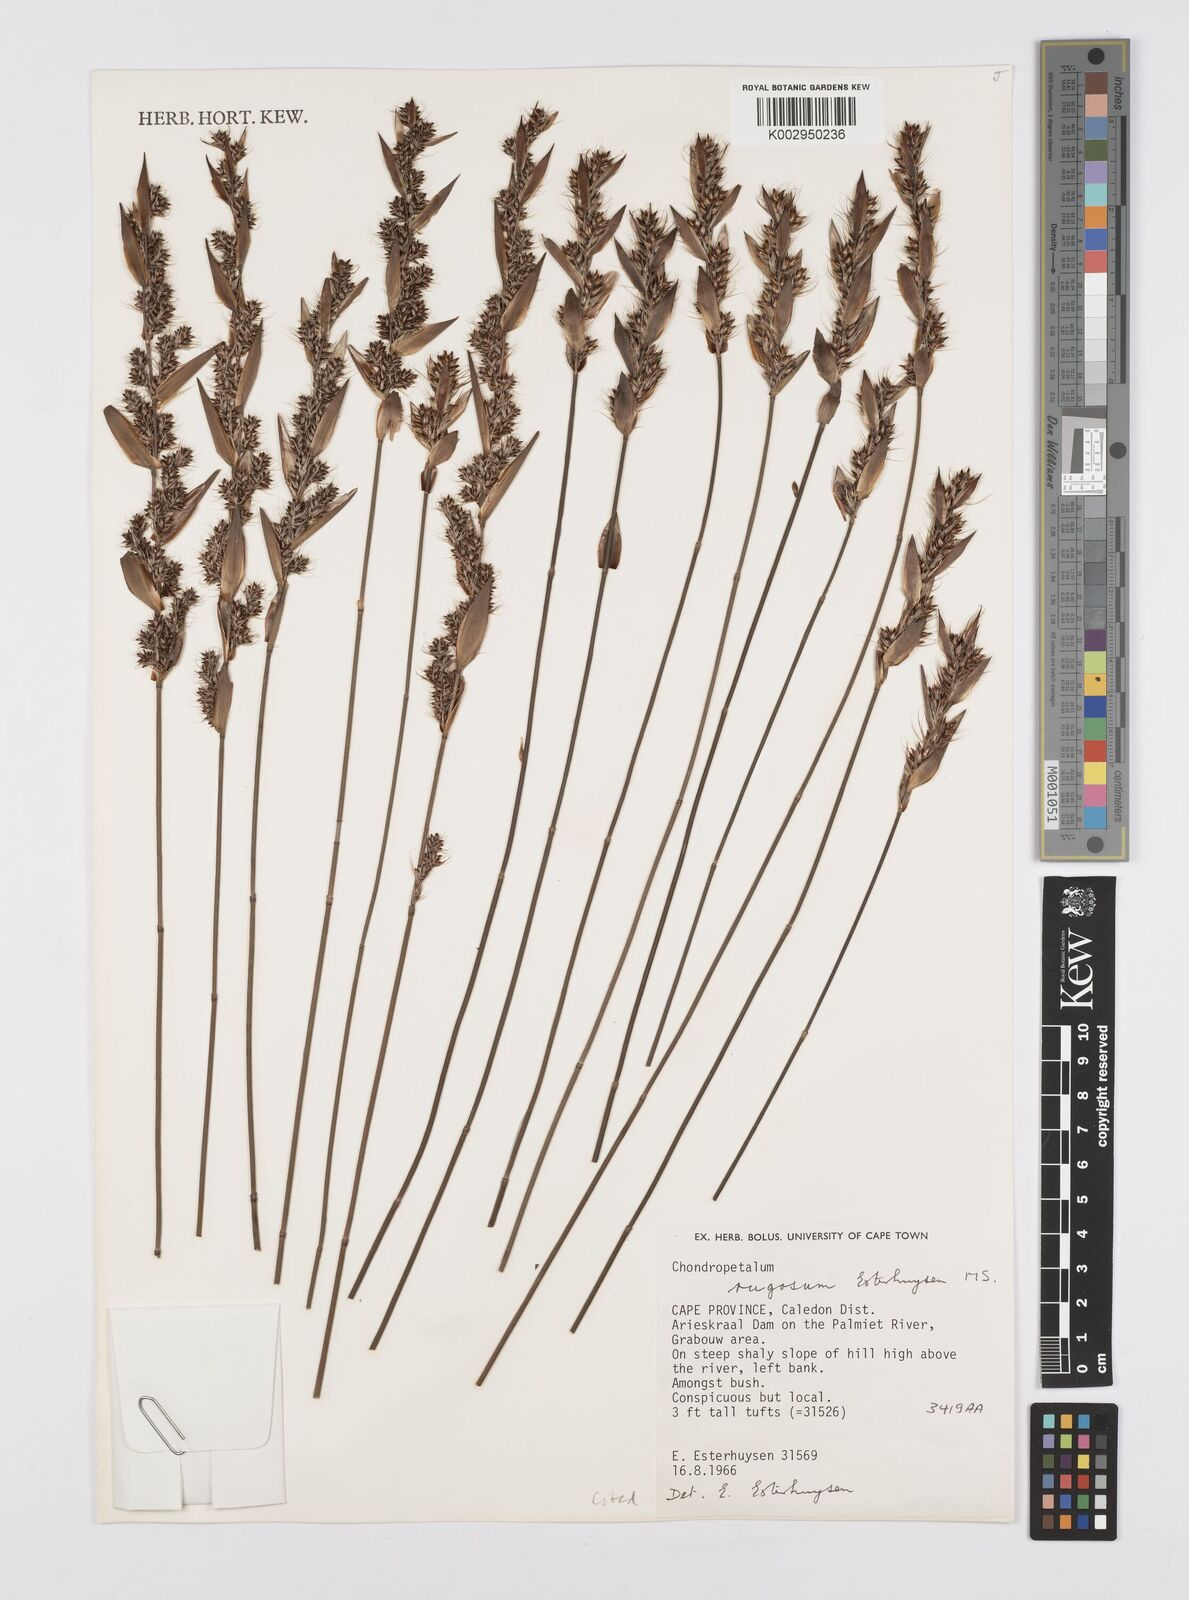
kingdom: Plantae
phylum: Tracheophyta
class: Liliopsida
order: Poales
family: Restionaceae
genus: Askidiosperma
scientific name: Askidiosperma rugosum
